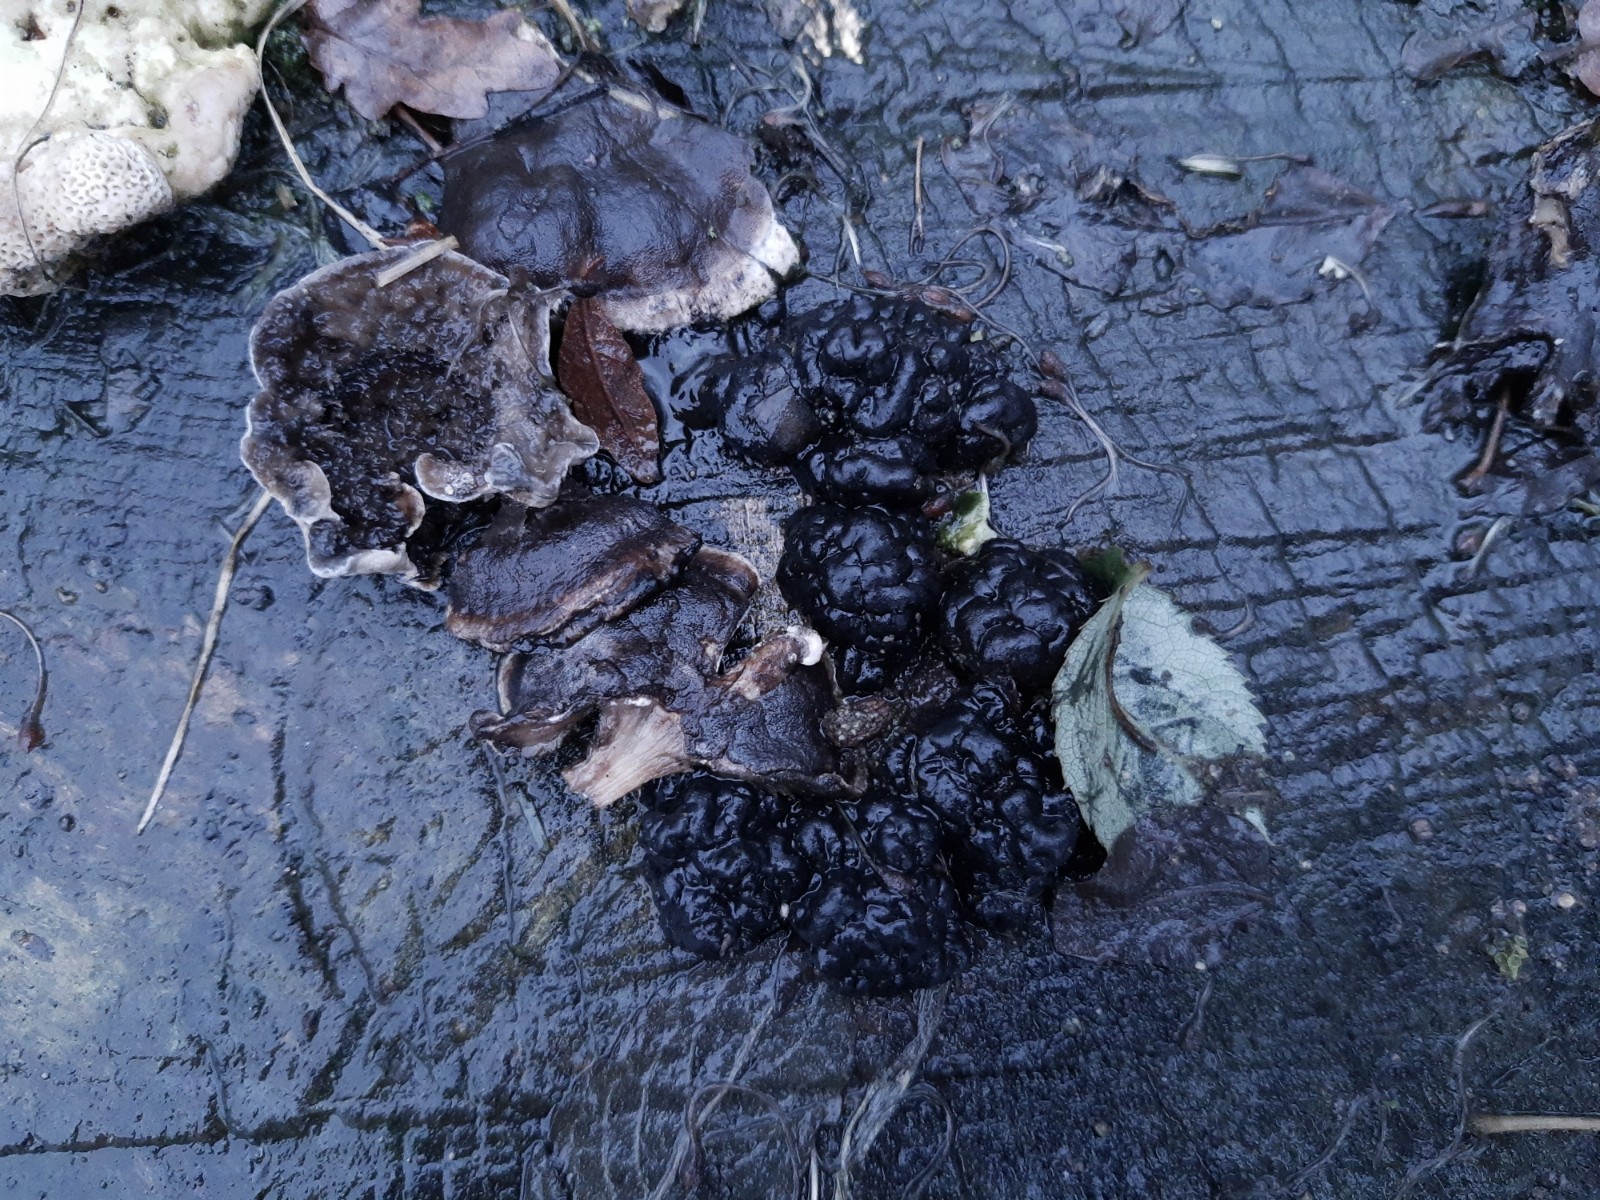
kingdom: Fungi
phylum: Basidiomycota
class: Agaricomycetes
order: Auriculariales
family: Auriculariaceae
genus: Exidia
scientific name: Exidia nigricans
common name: almindelig bævretop
